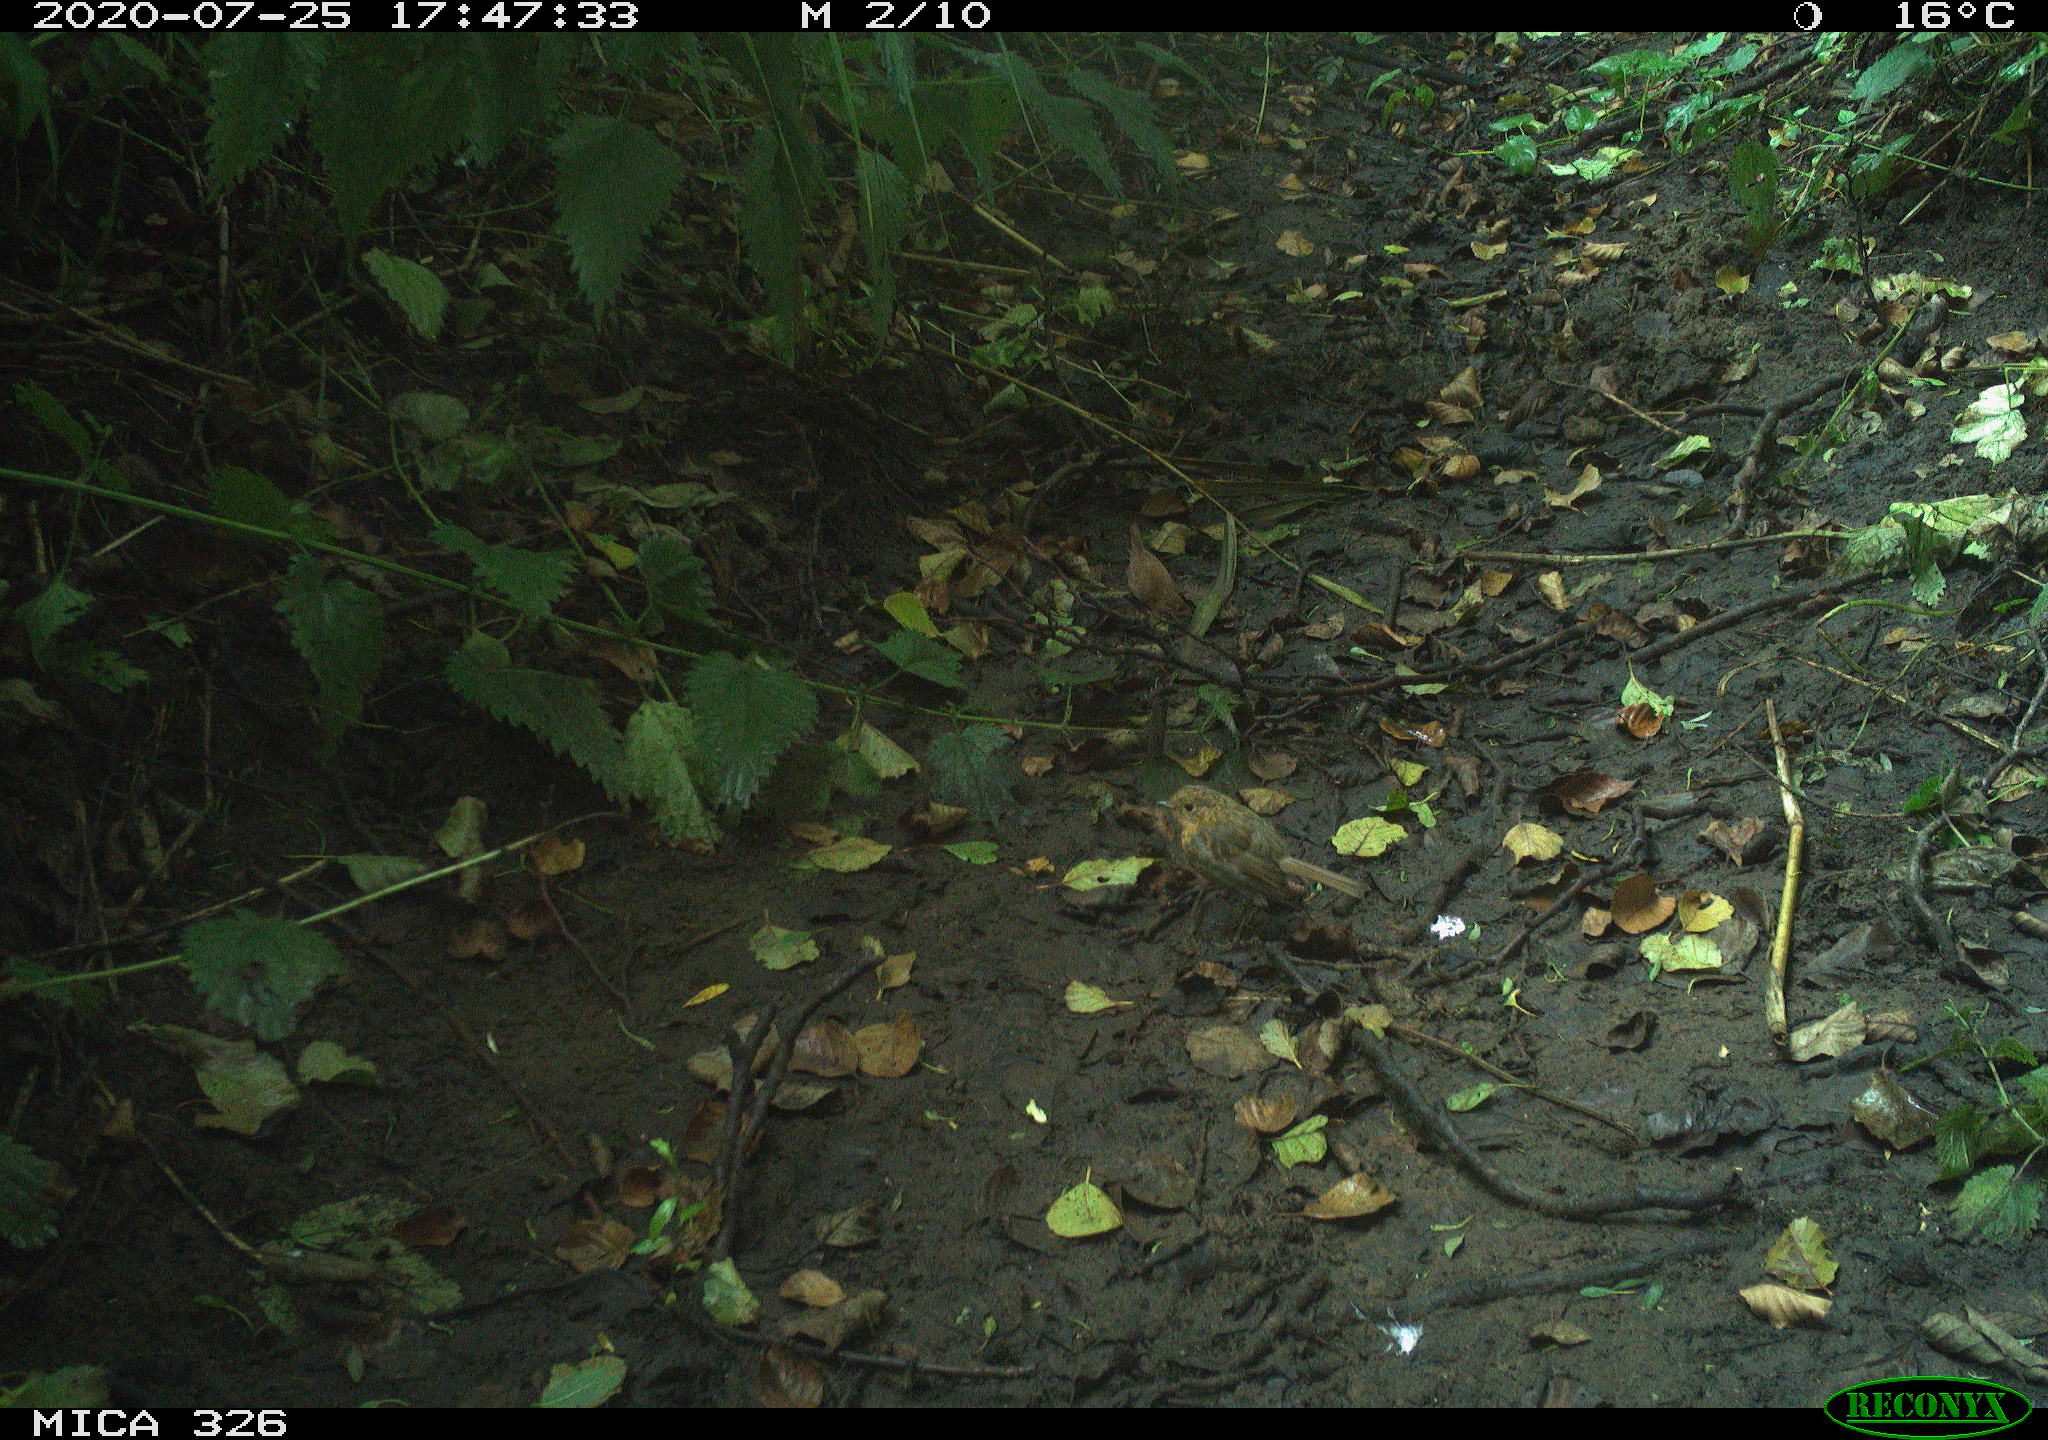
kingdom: Animalia
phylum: Chordata
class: Aves
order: Passeriformes
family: Muscicapidae
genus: Erithacus
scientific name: Erithacus rubecula
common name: European robin
